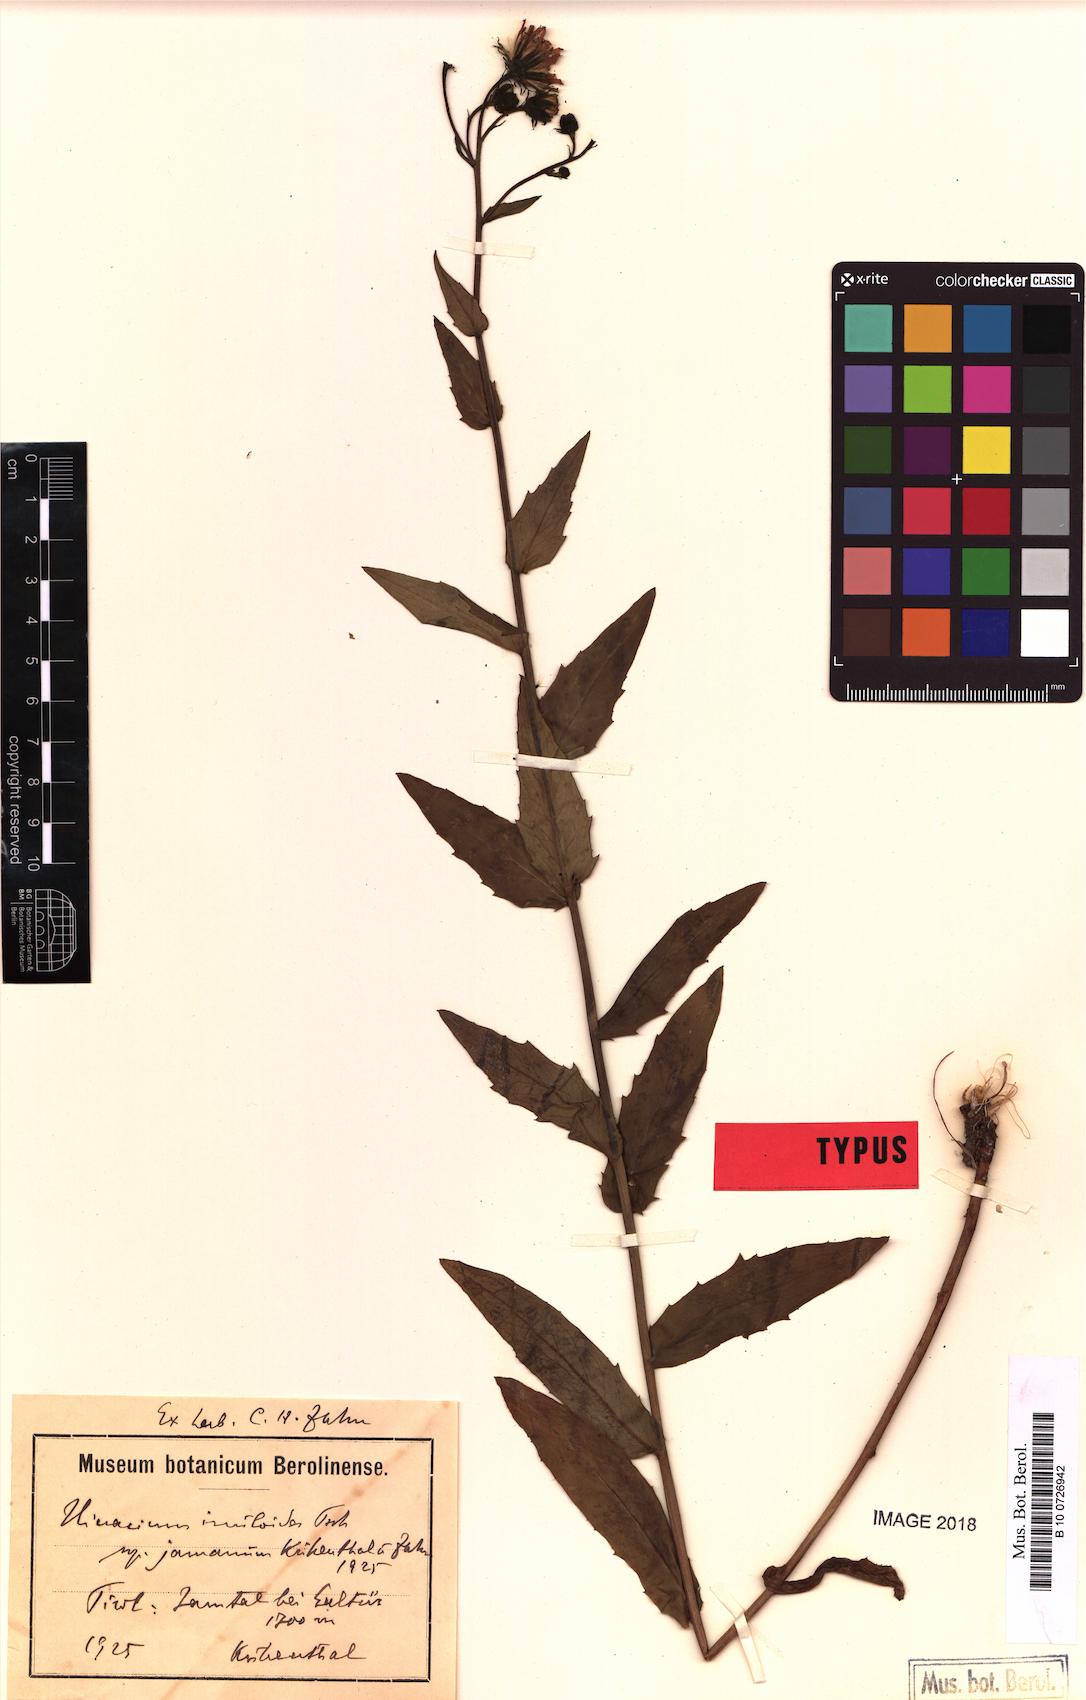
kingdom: Plantae
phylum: Tracheophyta
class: Magnoliopsida
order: Asterales
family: Asteraceae
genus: Hieracium
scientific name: Hieracium inuloides
